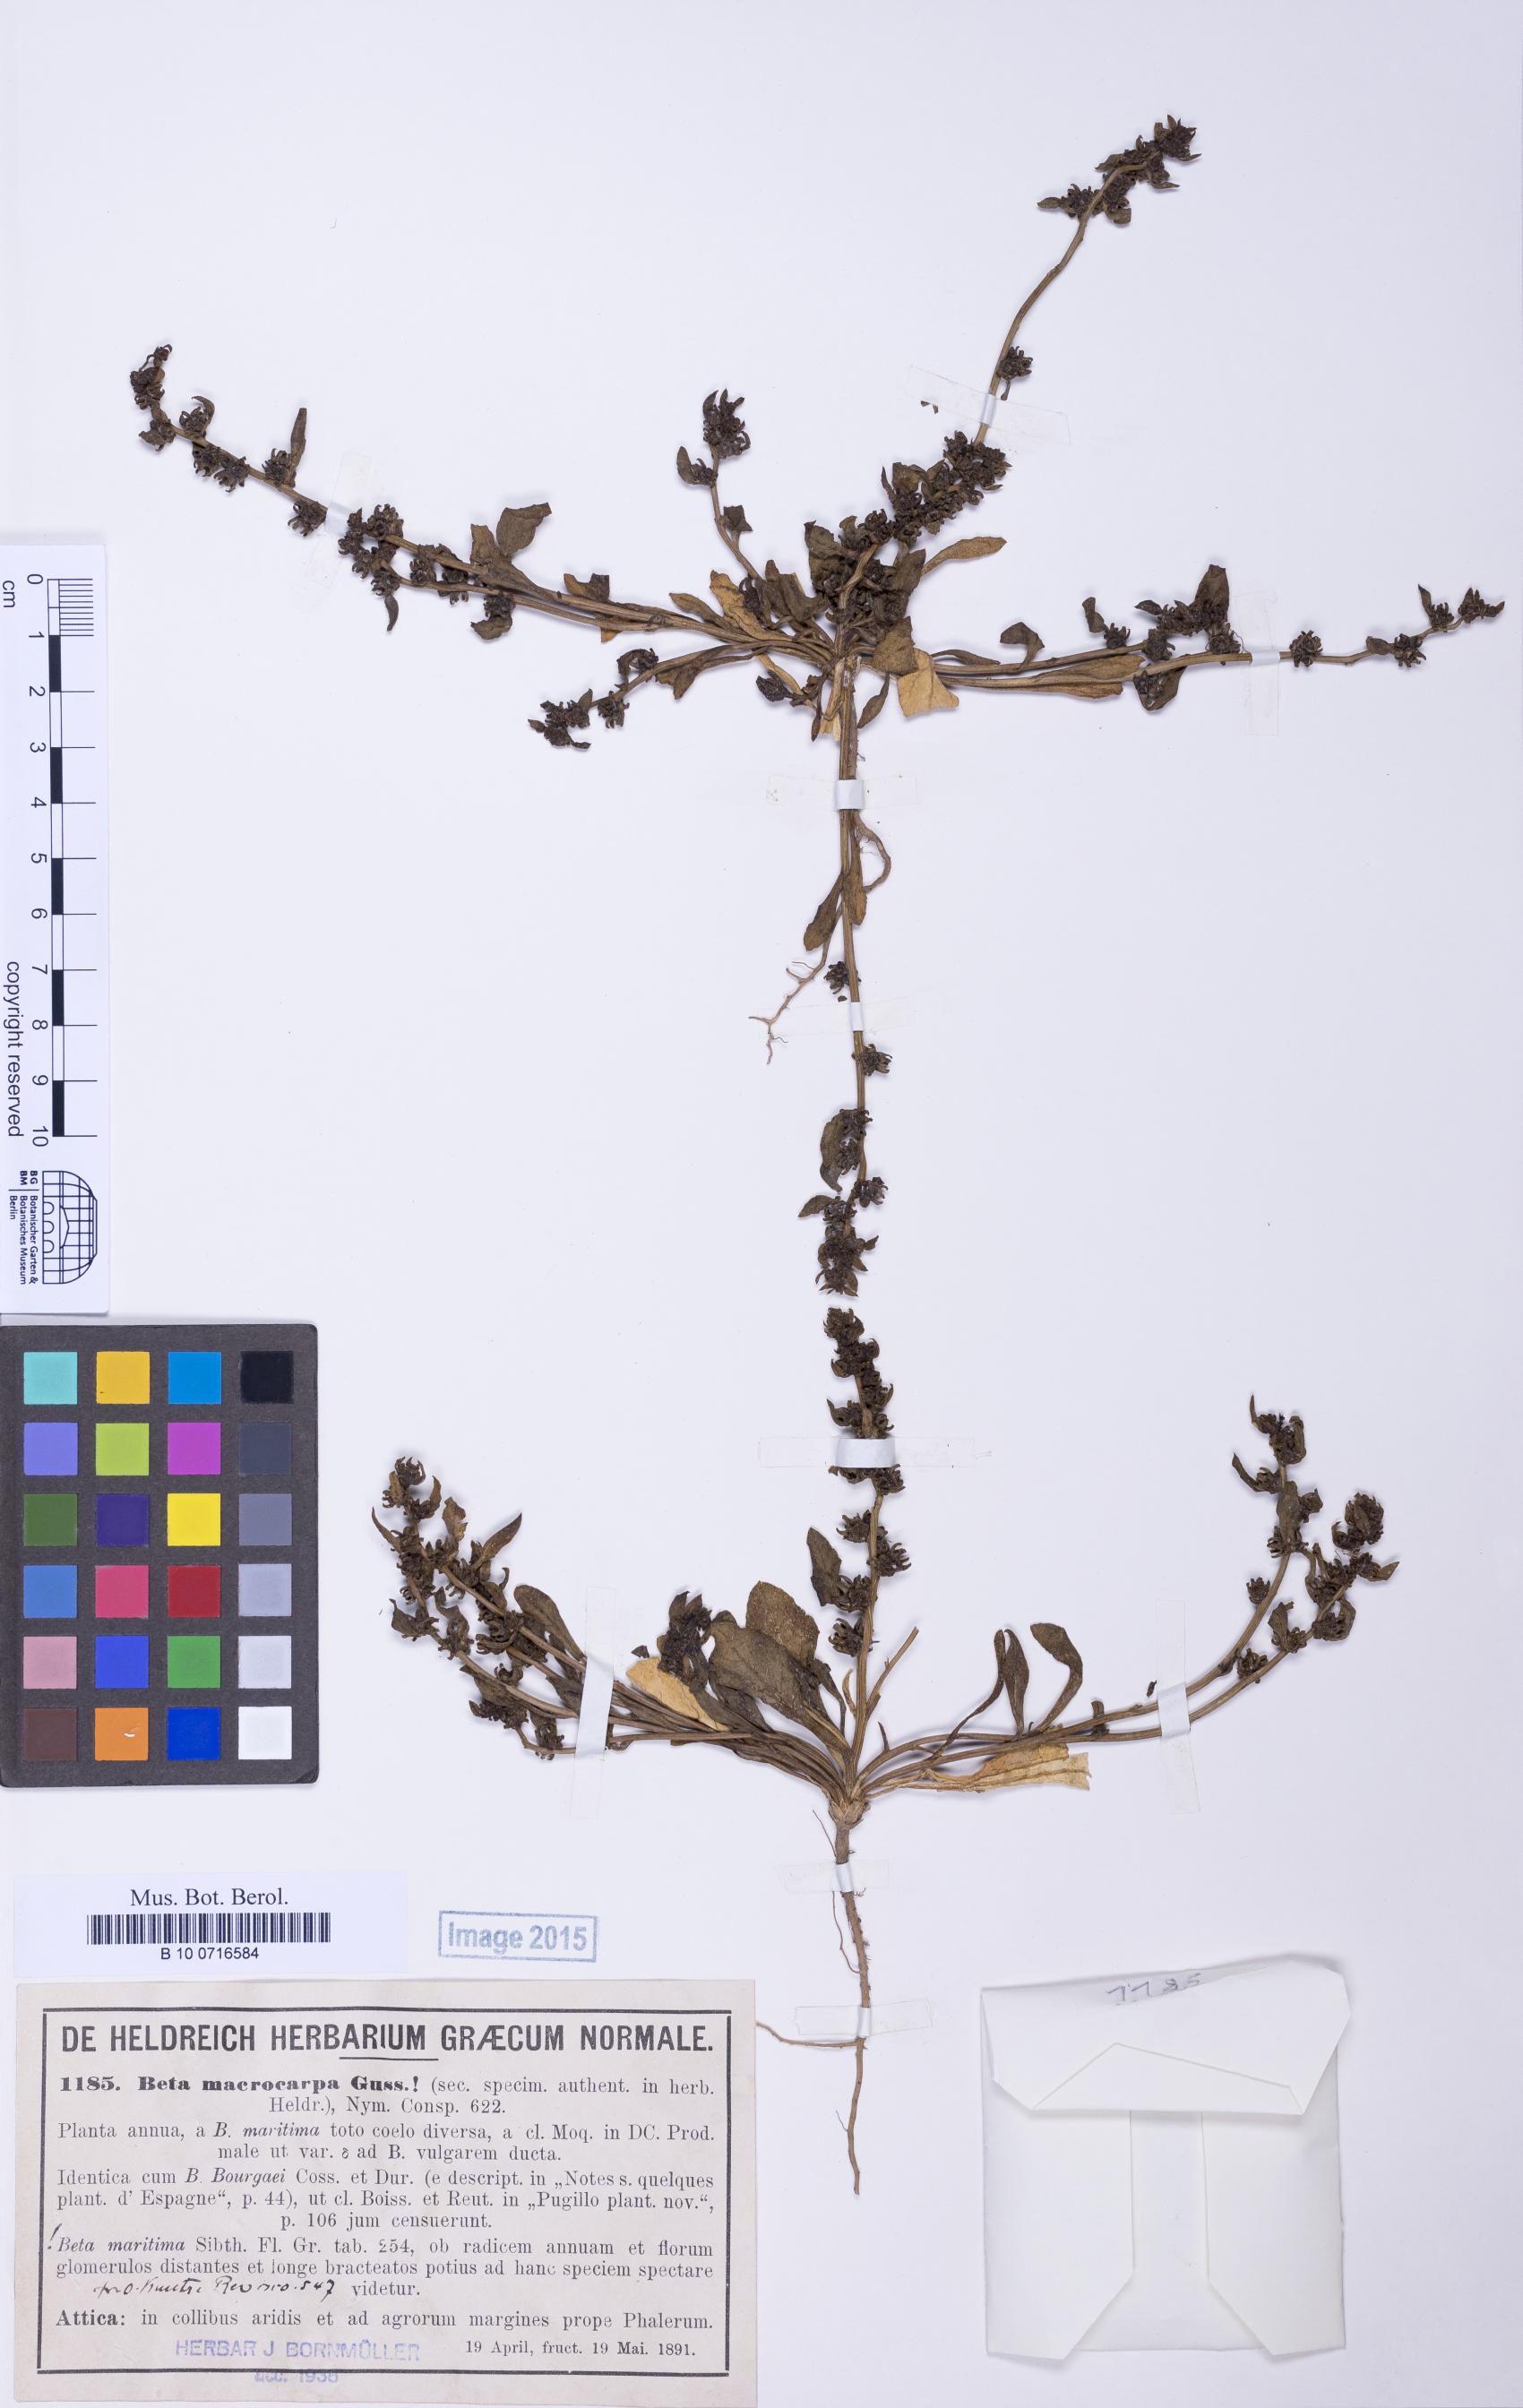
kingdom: Plantae
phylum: Tracheophyta
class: Magnoliopsida
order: Caryophyllales
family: Amaranthaceae
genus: Beta
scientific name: Beta macrocarpa
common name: Beet
